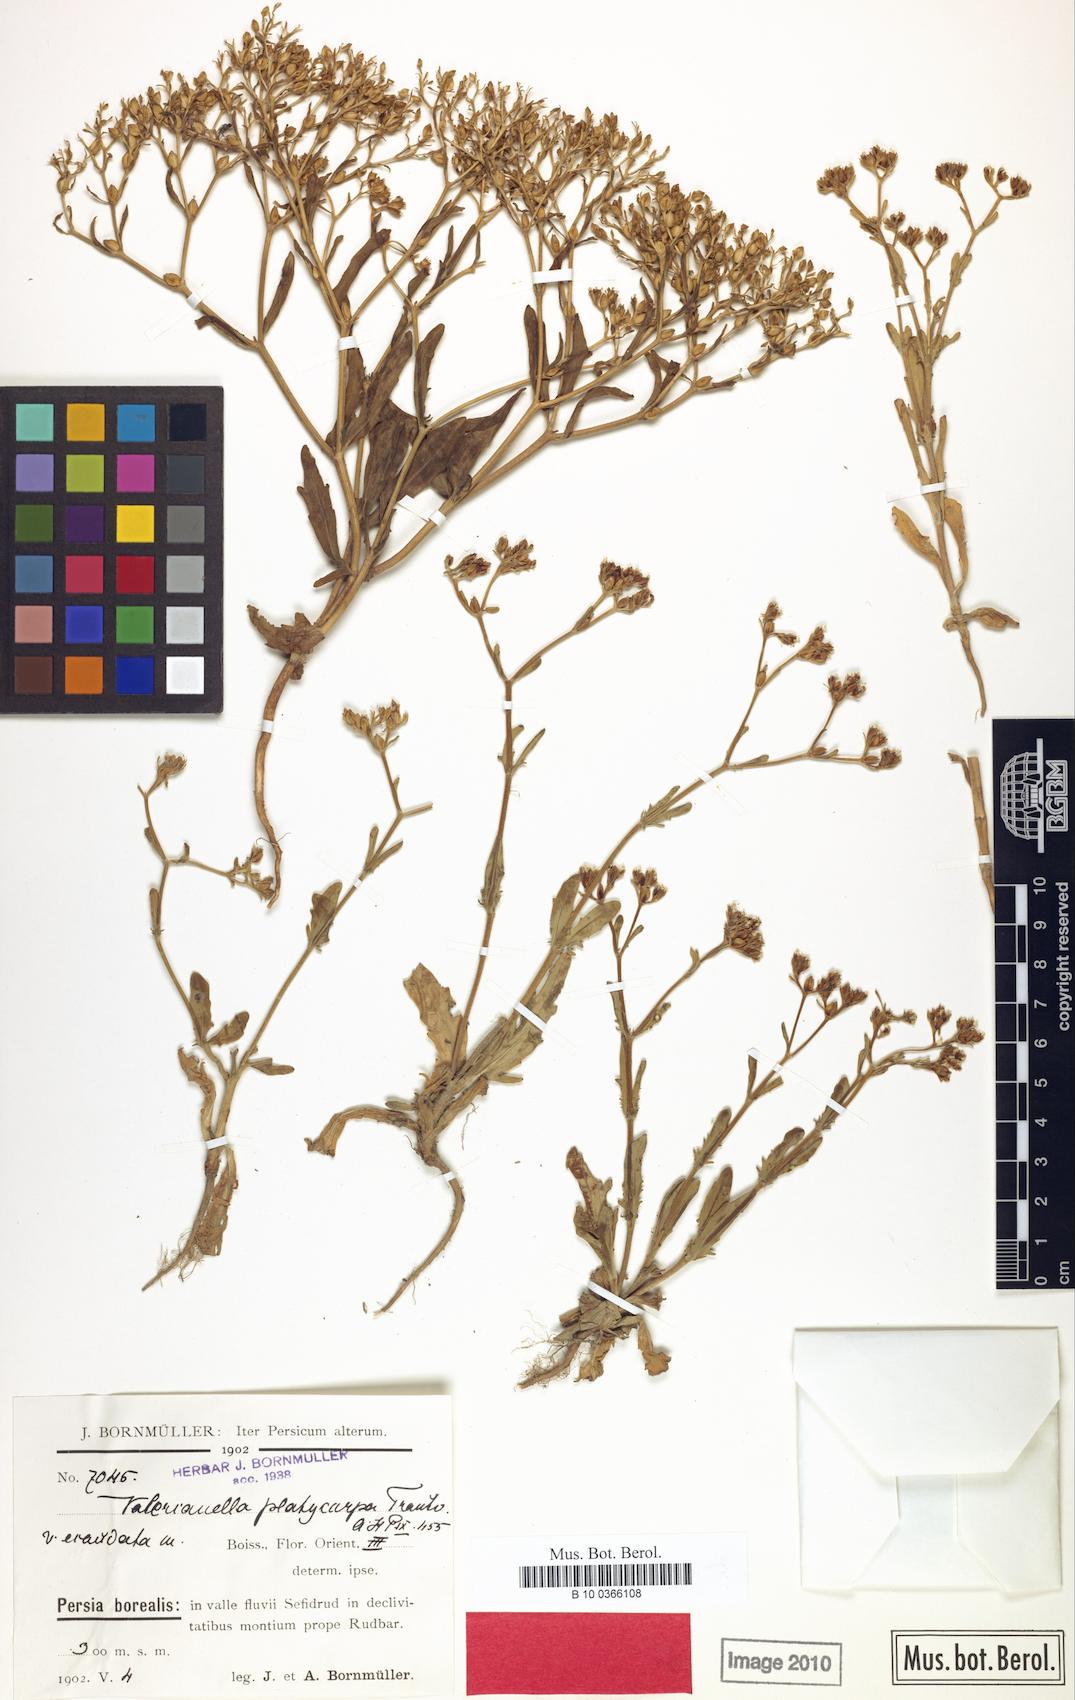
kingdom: Plantae
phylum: Tracheophyta
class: Magnoliopsida
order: Dipsacales
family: Caprifoliaceae
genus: Valerianella
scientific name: Valerianella platycarpa
